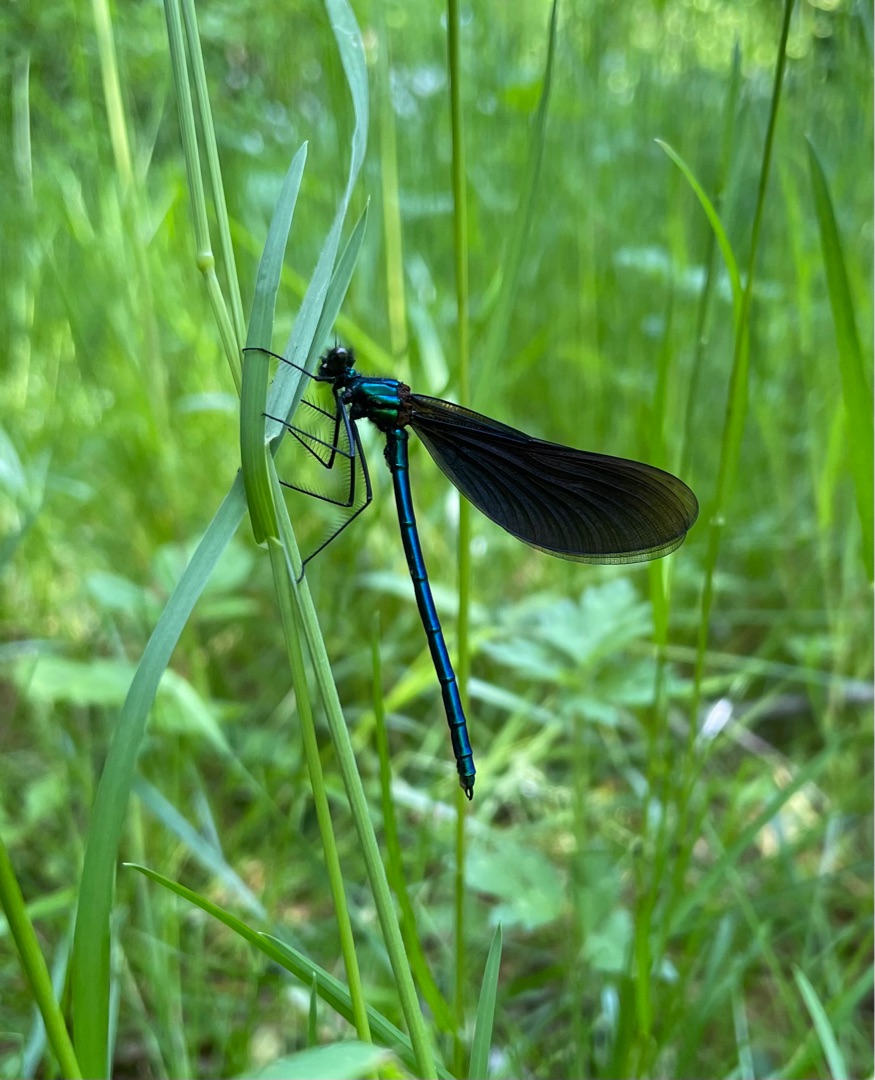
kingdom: Animalia
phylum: Arthropoda
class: Insecta
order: Odonata
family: Calopterygidae
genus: Calopteryx
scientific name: Calopteryx virgo
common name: Blåvinget pragtvandnymfe
